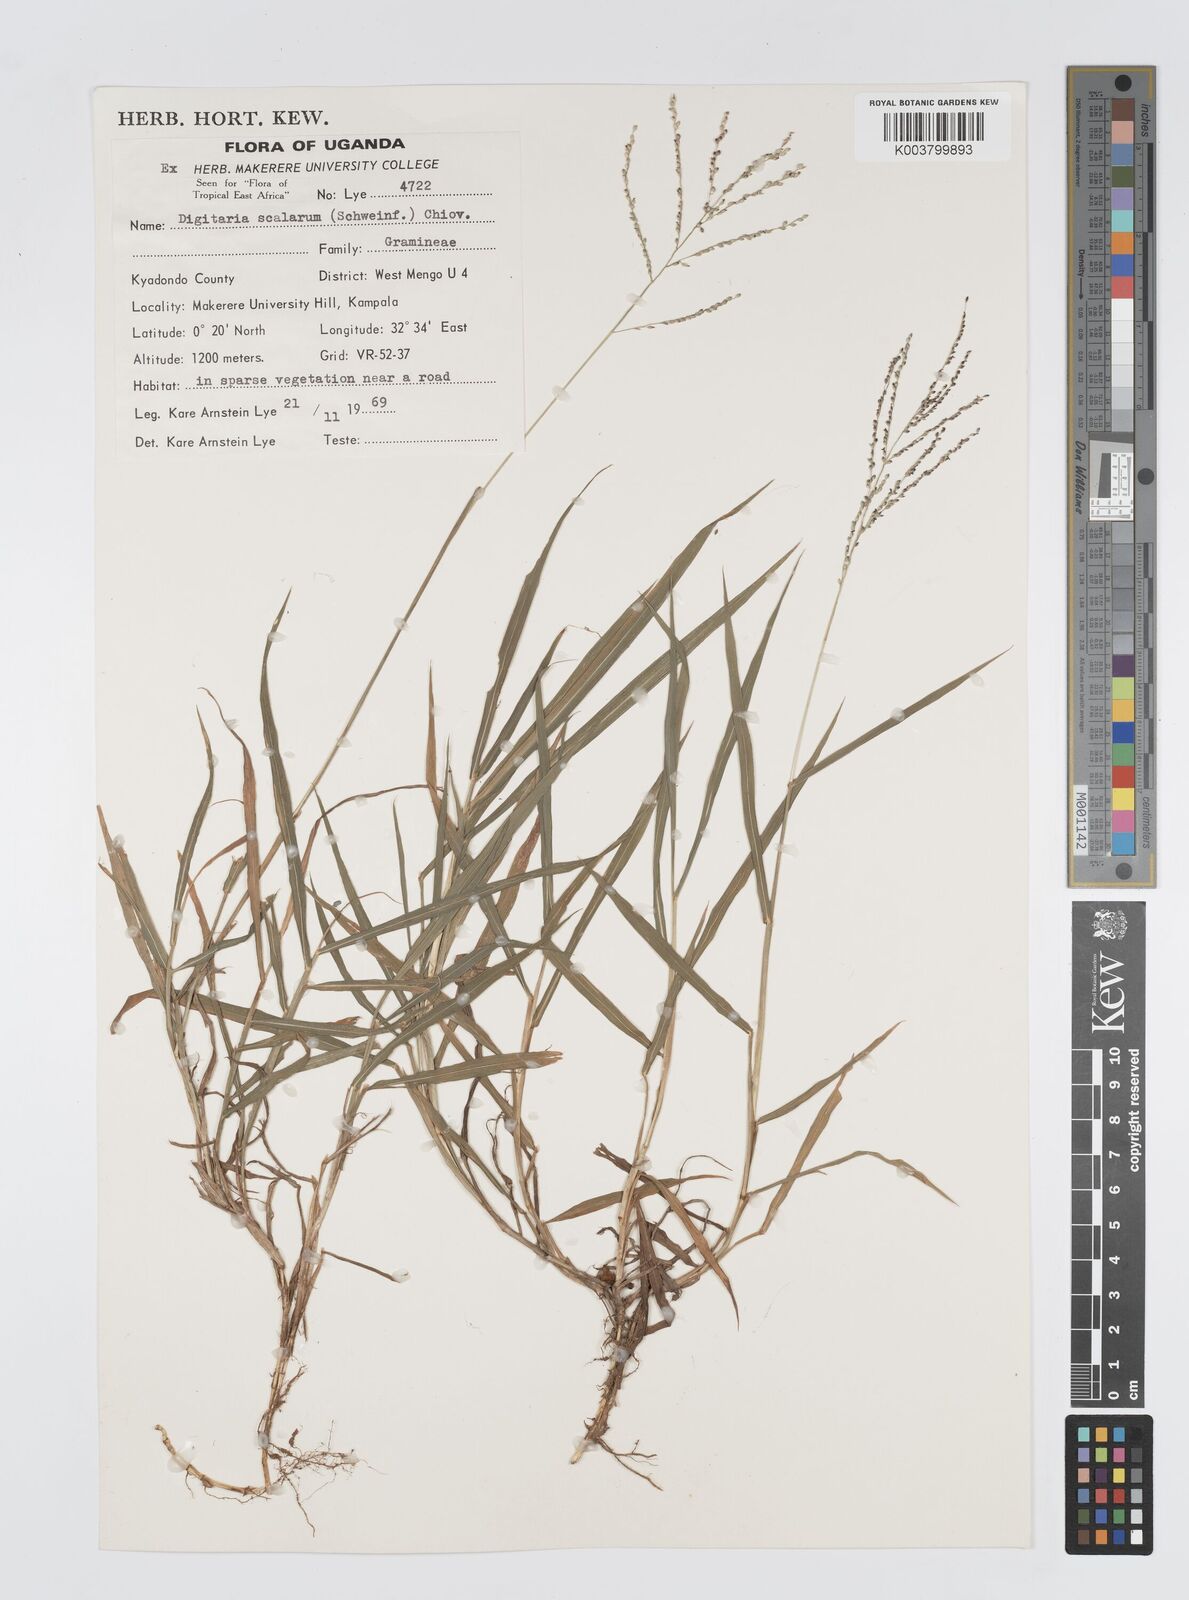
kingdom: Plantae
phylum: Tracheophyta
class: Liliopsida
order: Poales
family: Poaceae
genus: Digitaria
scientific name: Digitaria abyssinica
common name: African couchgrass
